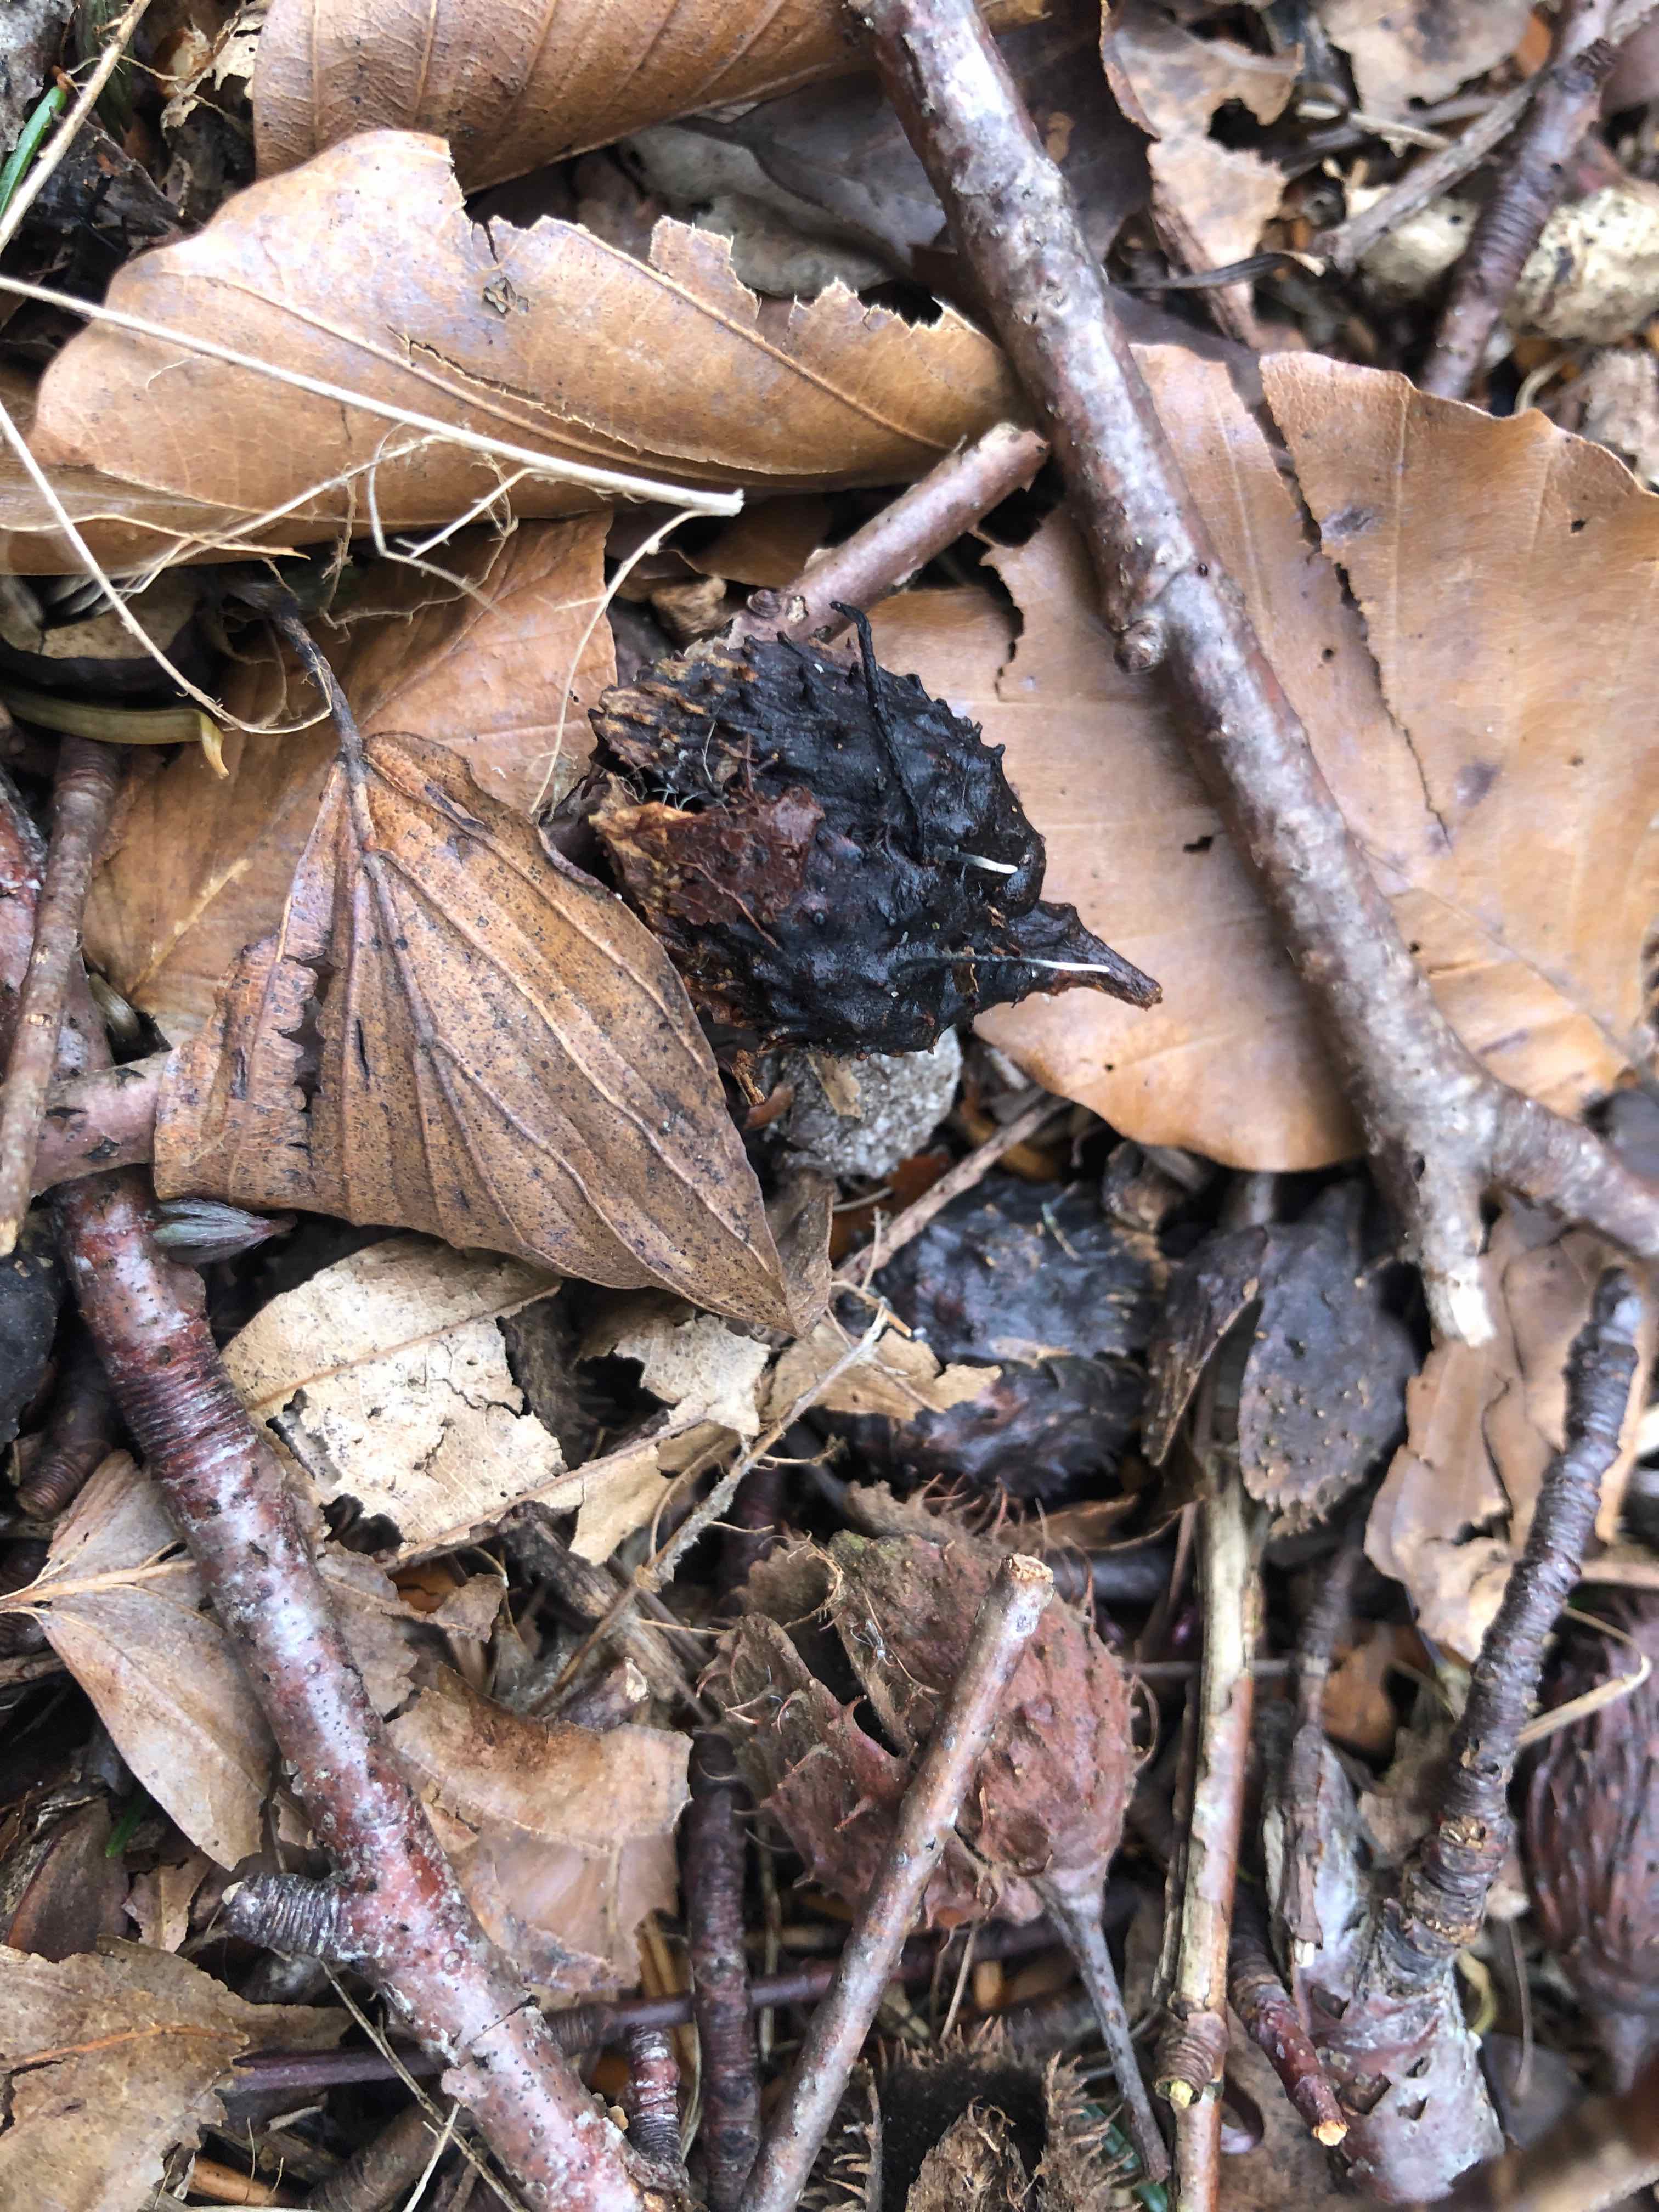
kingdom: Fungi
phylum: Ascomycota
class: Sordariomycetes
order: Xylariales
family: Xylariaceae
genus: Xylaria
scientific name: Xylaria carpophila
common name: bogskål-stødsvamp
